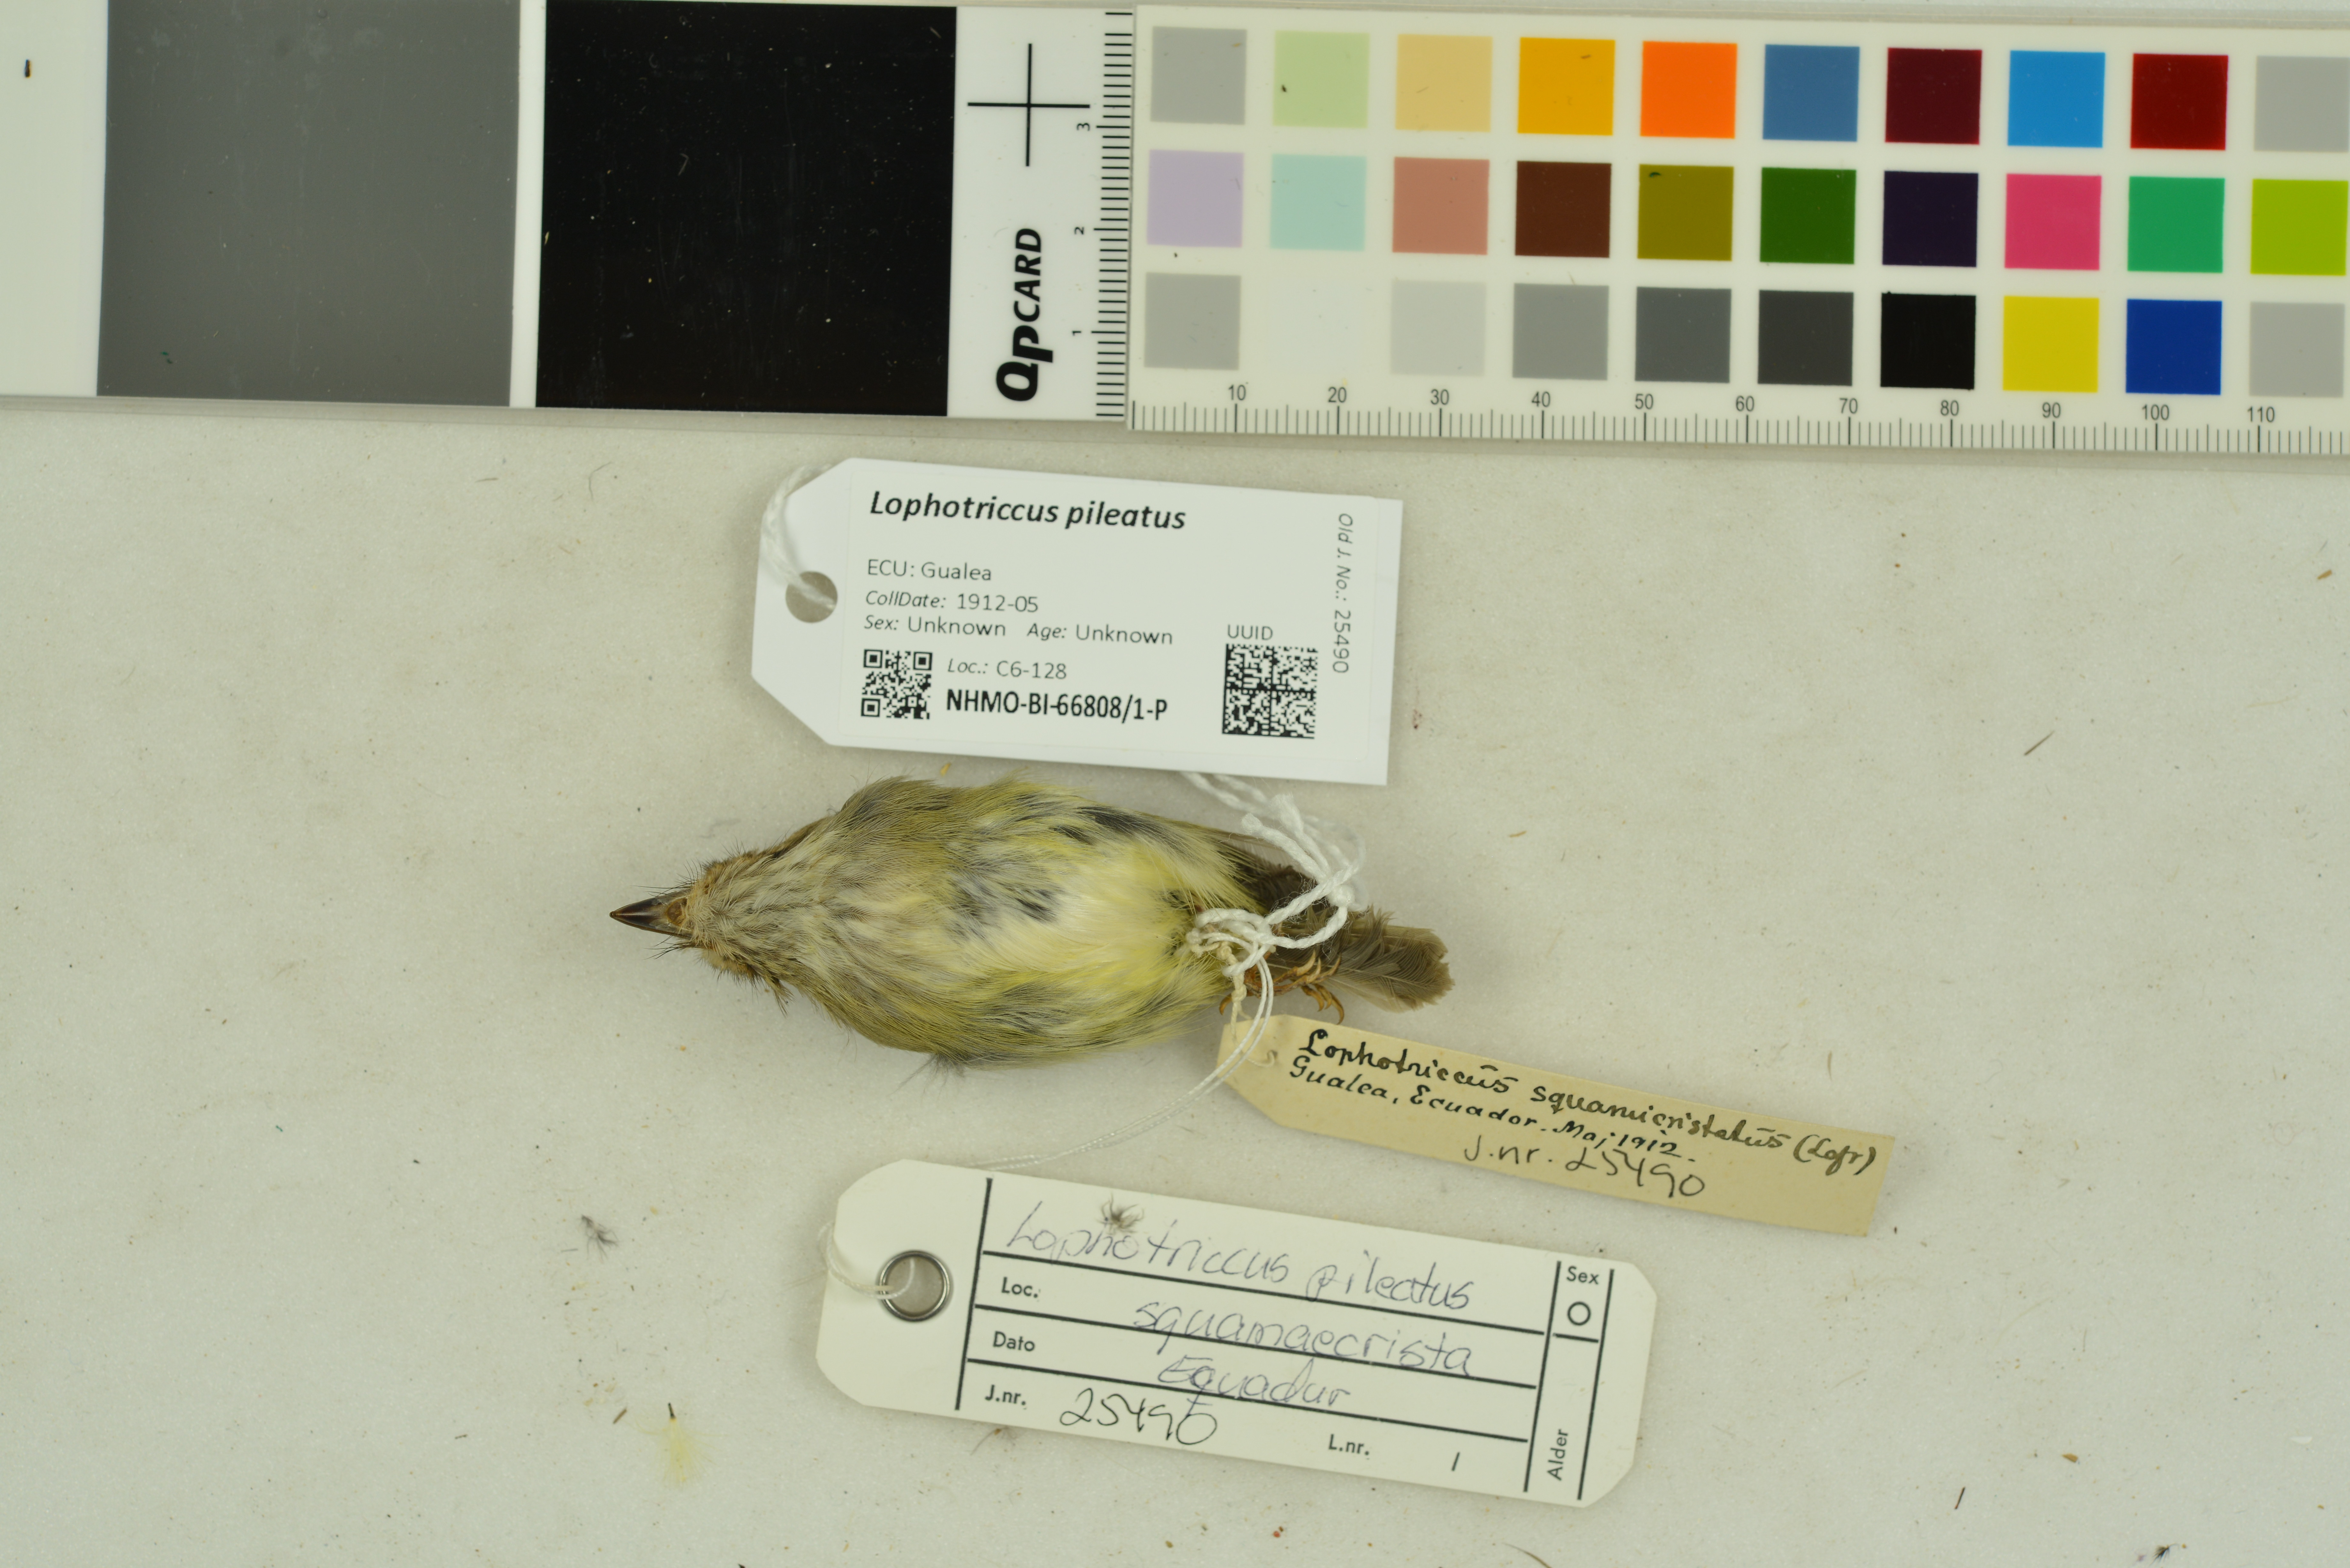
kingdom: Animalia
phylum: Chordata
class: Aves
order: Passeriformes
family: Tyrannidae
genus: Lophotriccus
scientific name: Lophotriccus pileatus
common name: Scale-crested pygmy-tyrant
